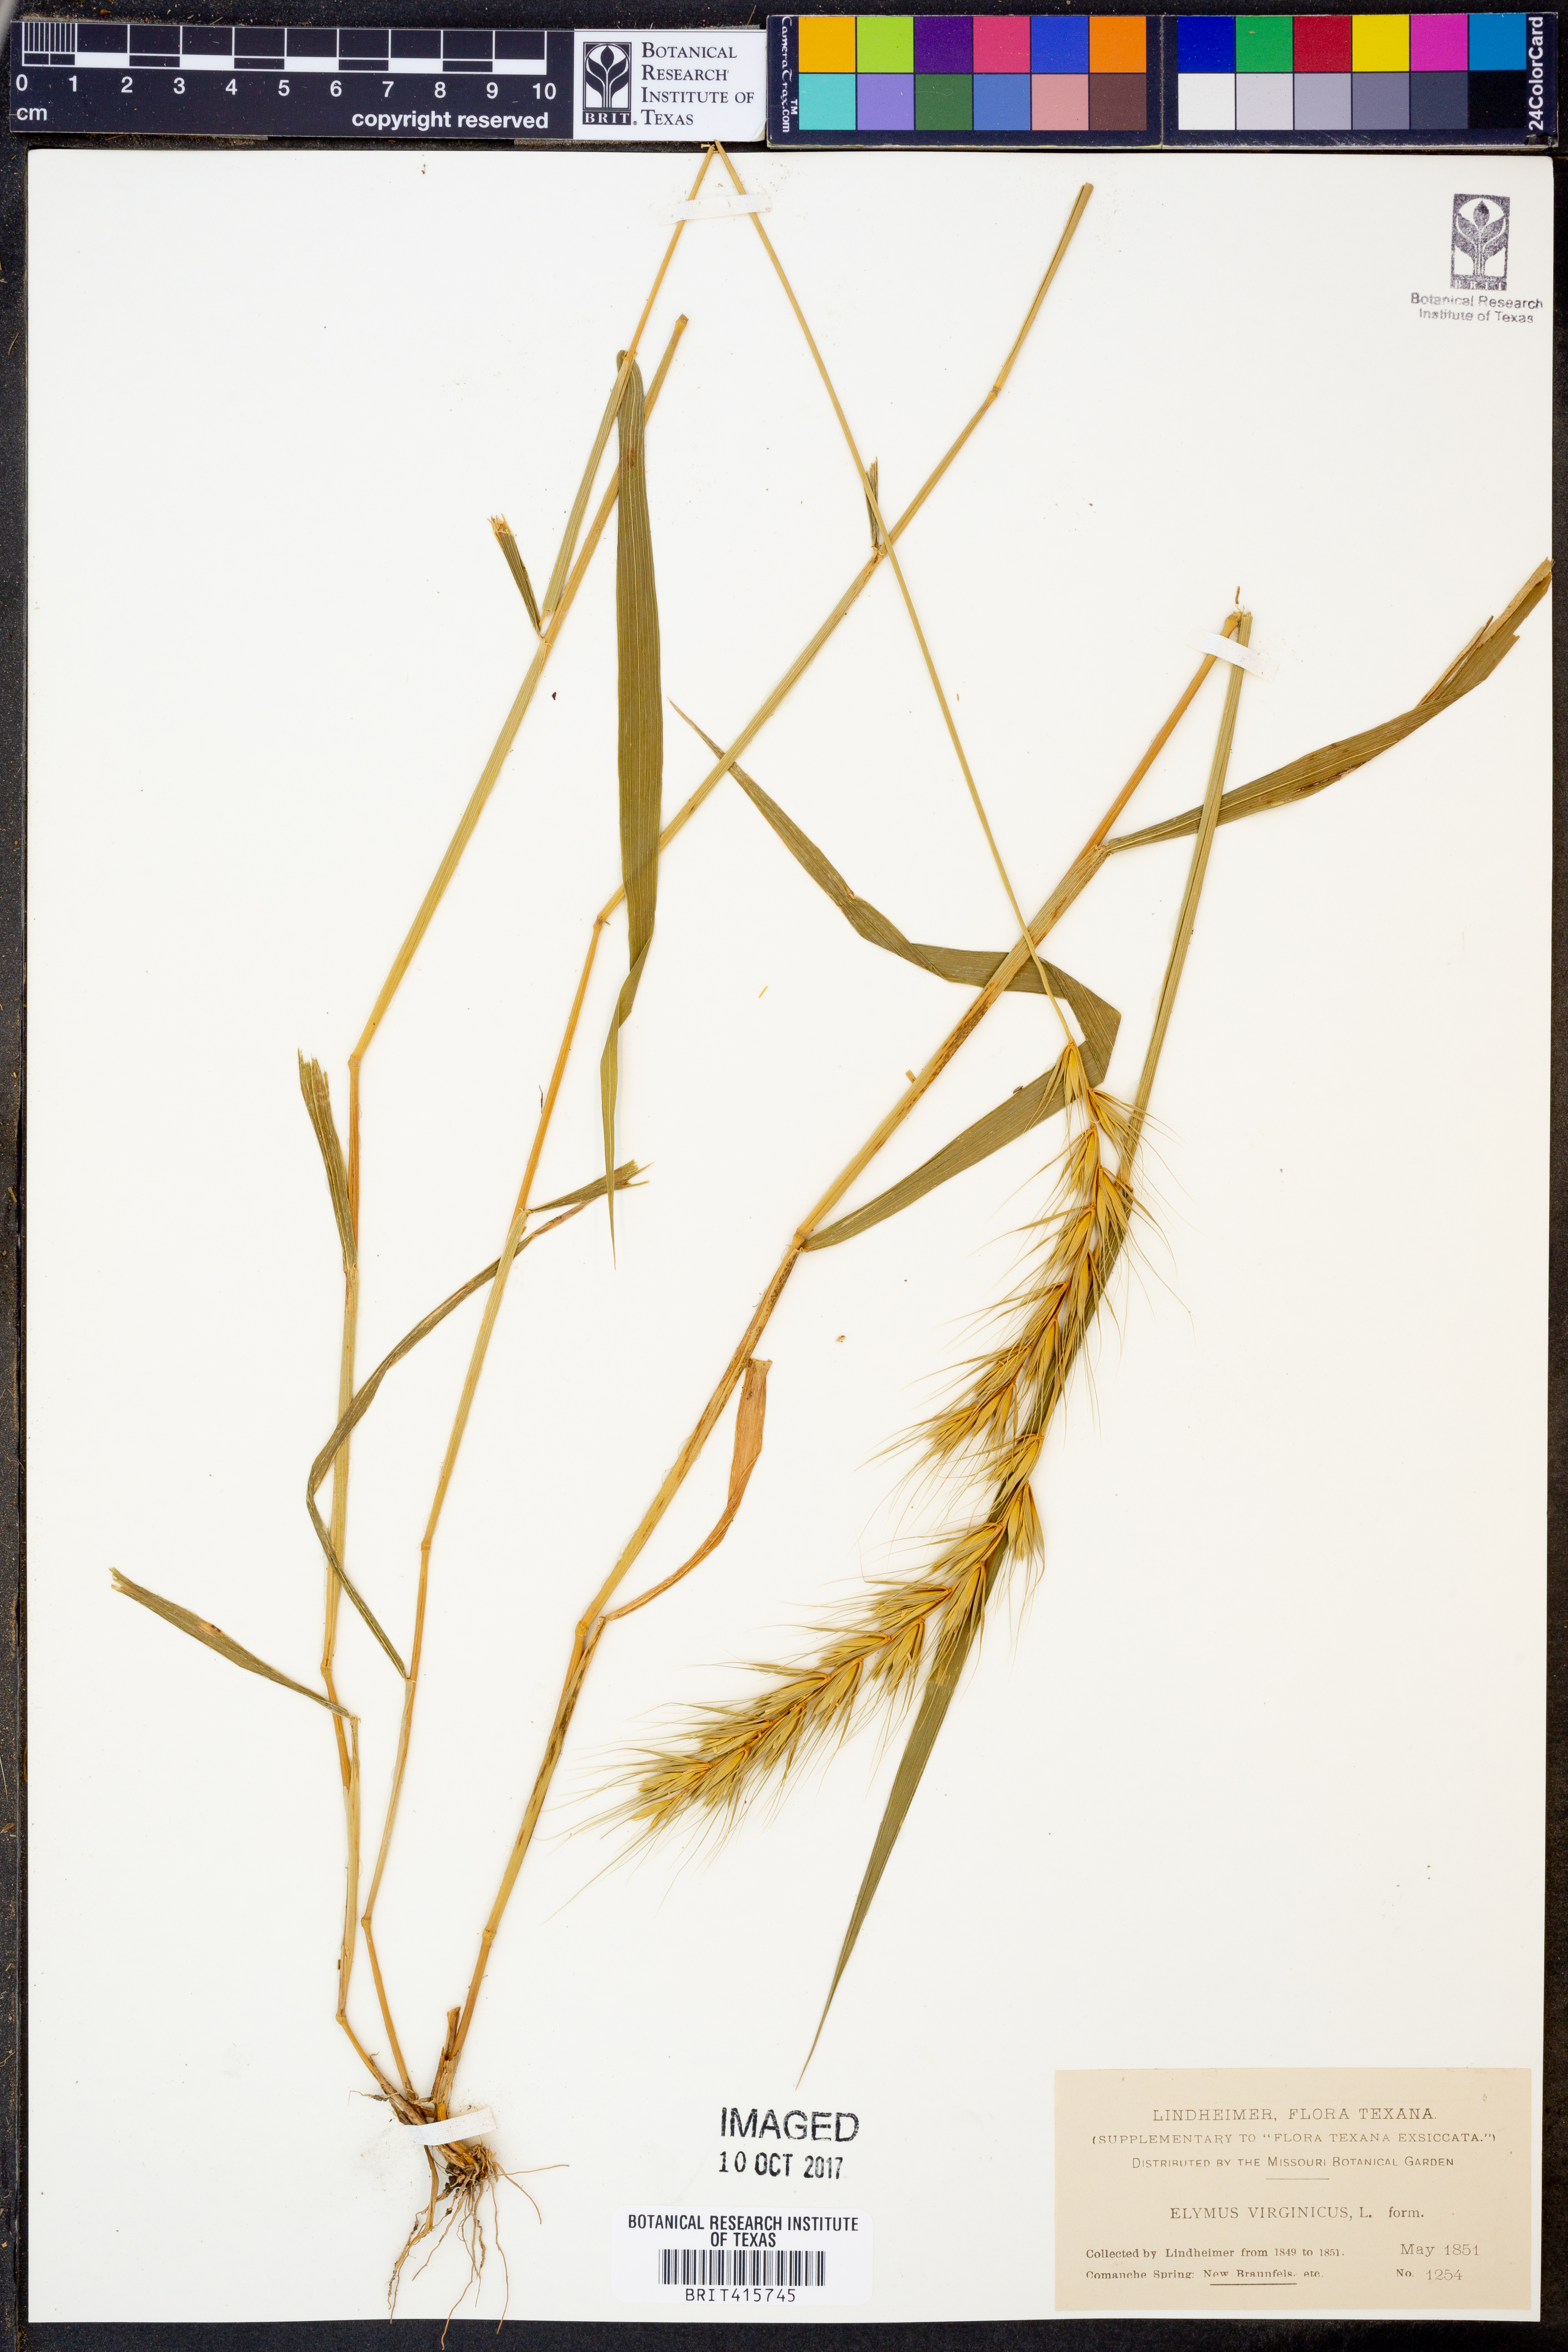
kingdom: Plantae
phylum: Tracheophyta
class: Liliopsida
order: Poales
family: Poaceae
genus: Elymus
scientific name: Elymus virginicus
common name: Common eastern wildrye
